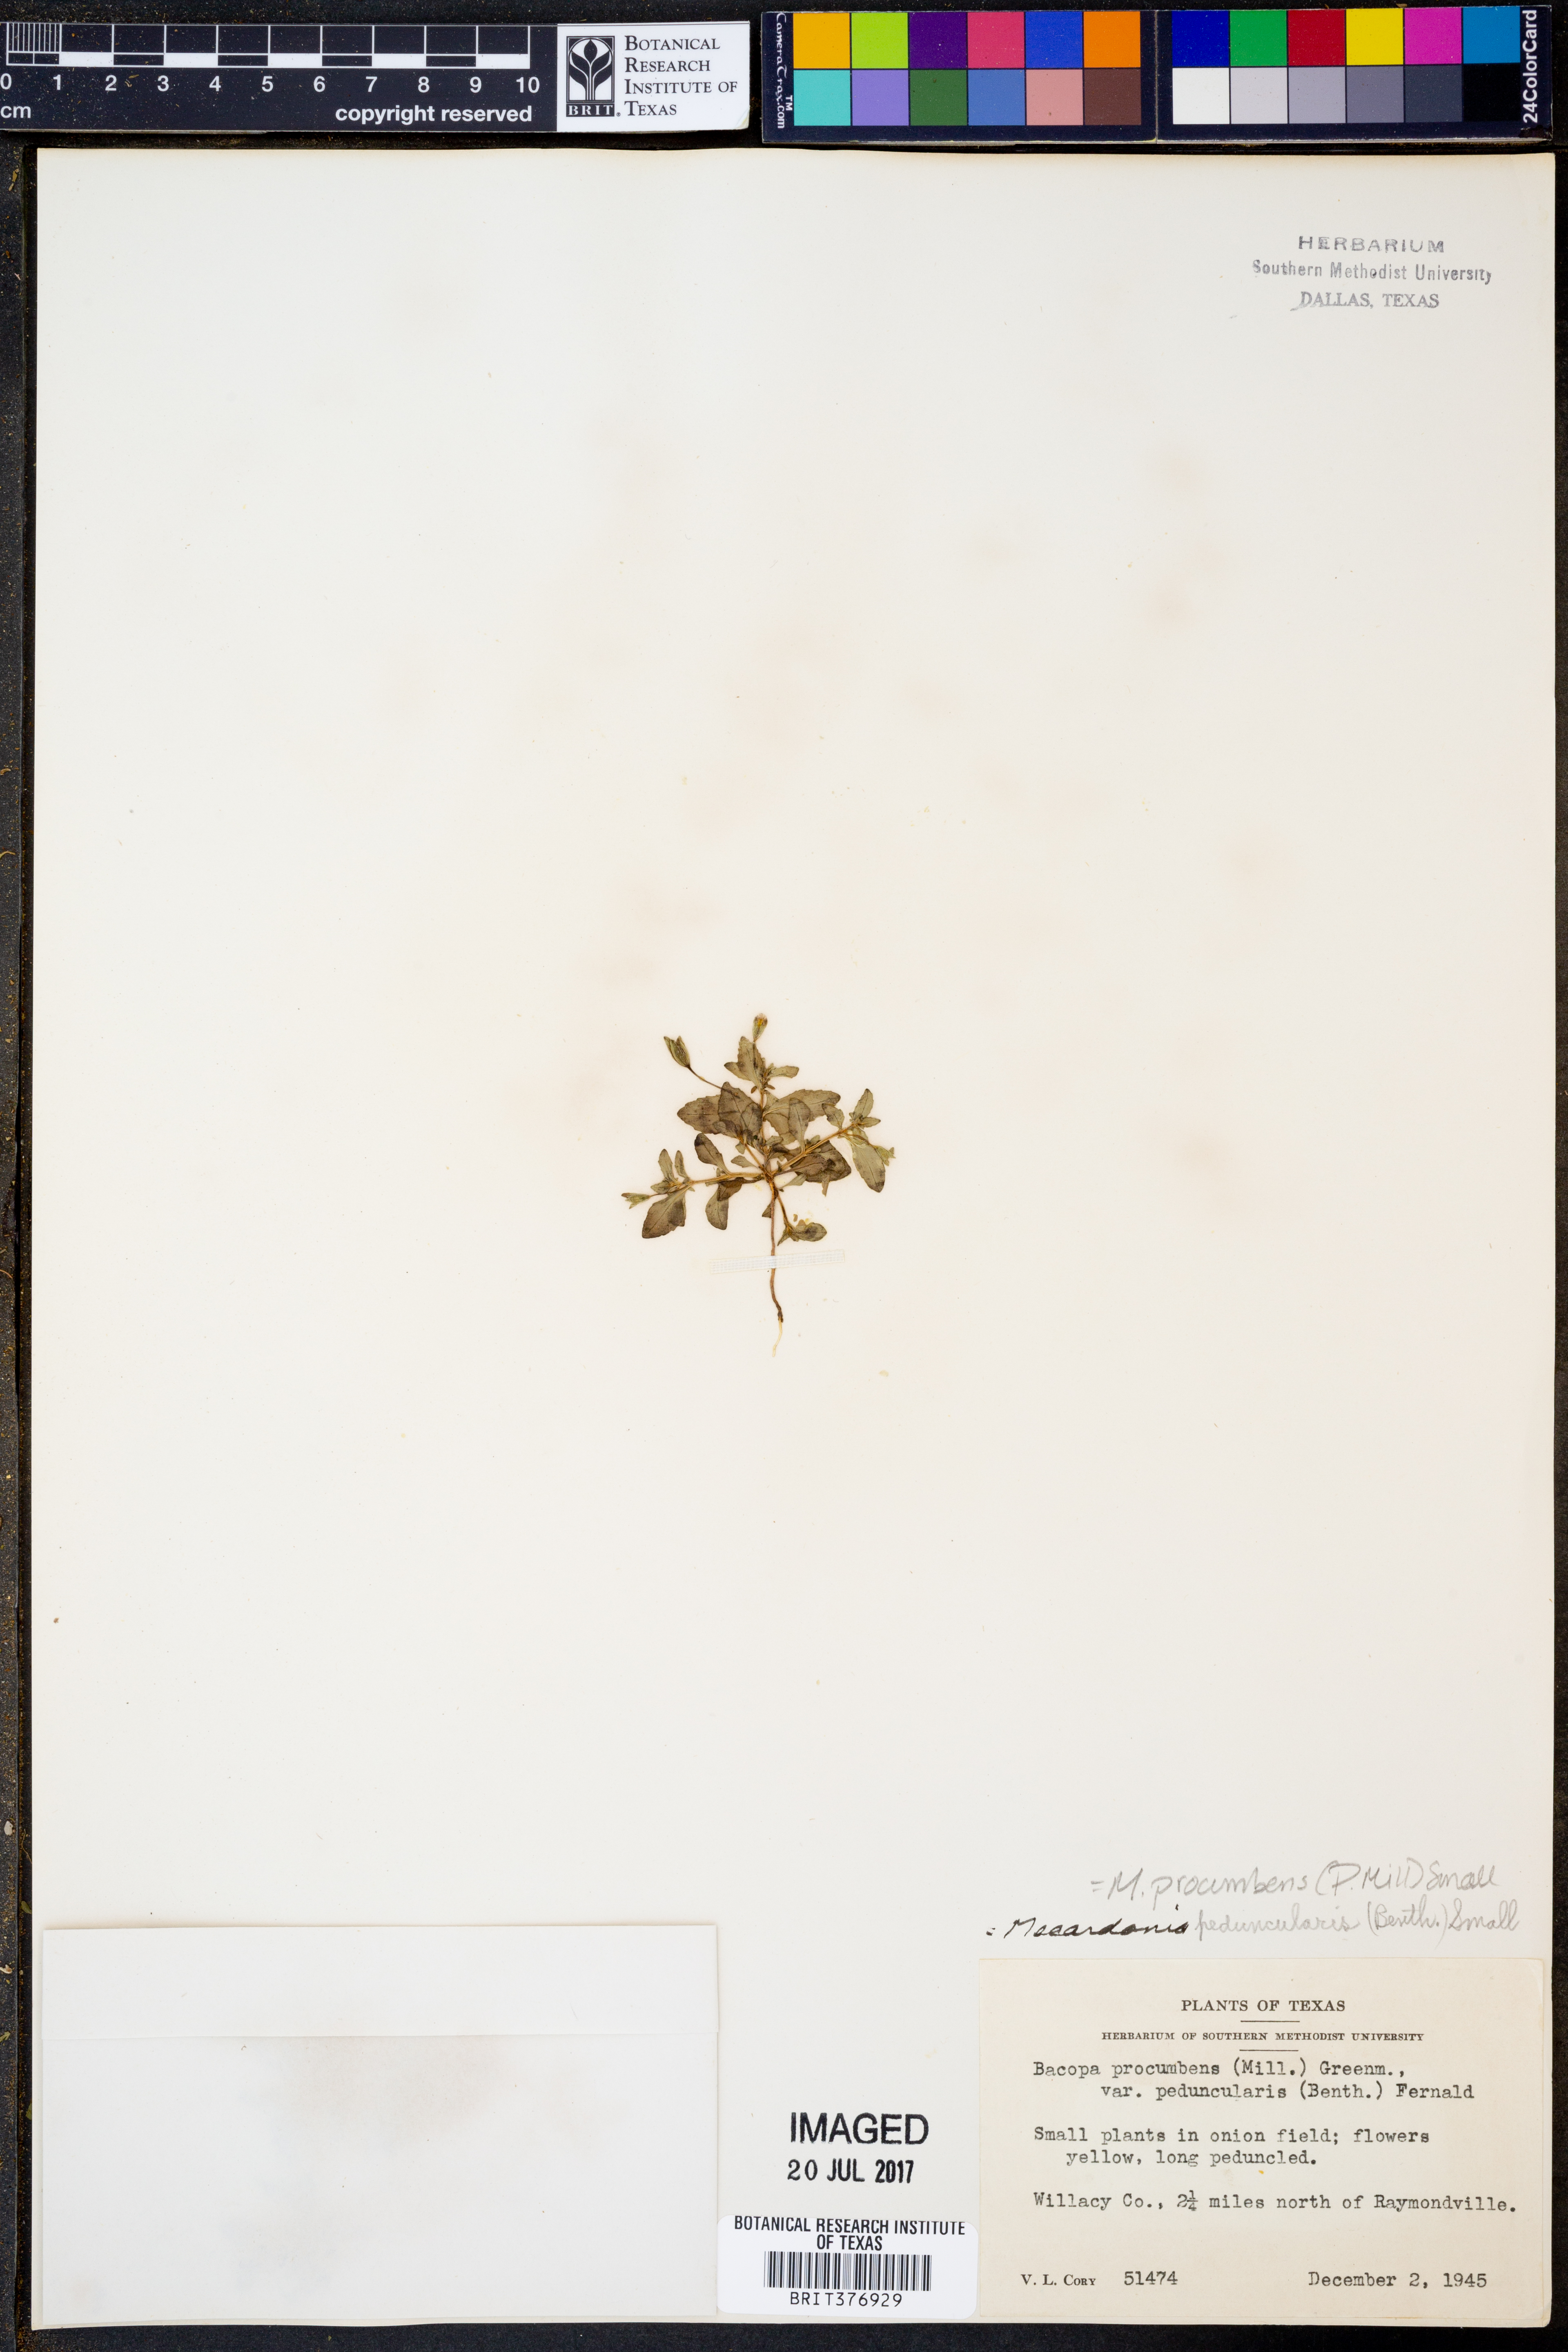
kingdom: Plantae
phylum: Tracheophyta
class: Magnoliopsida
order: Lamiales
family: Plantaginaceae
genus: Mecardonia
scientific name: Mecardonia procumbens
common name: Baby jump-up
